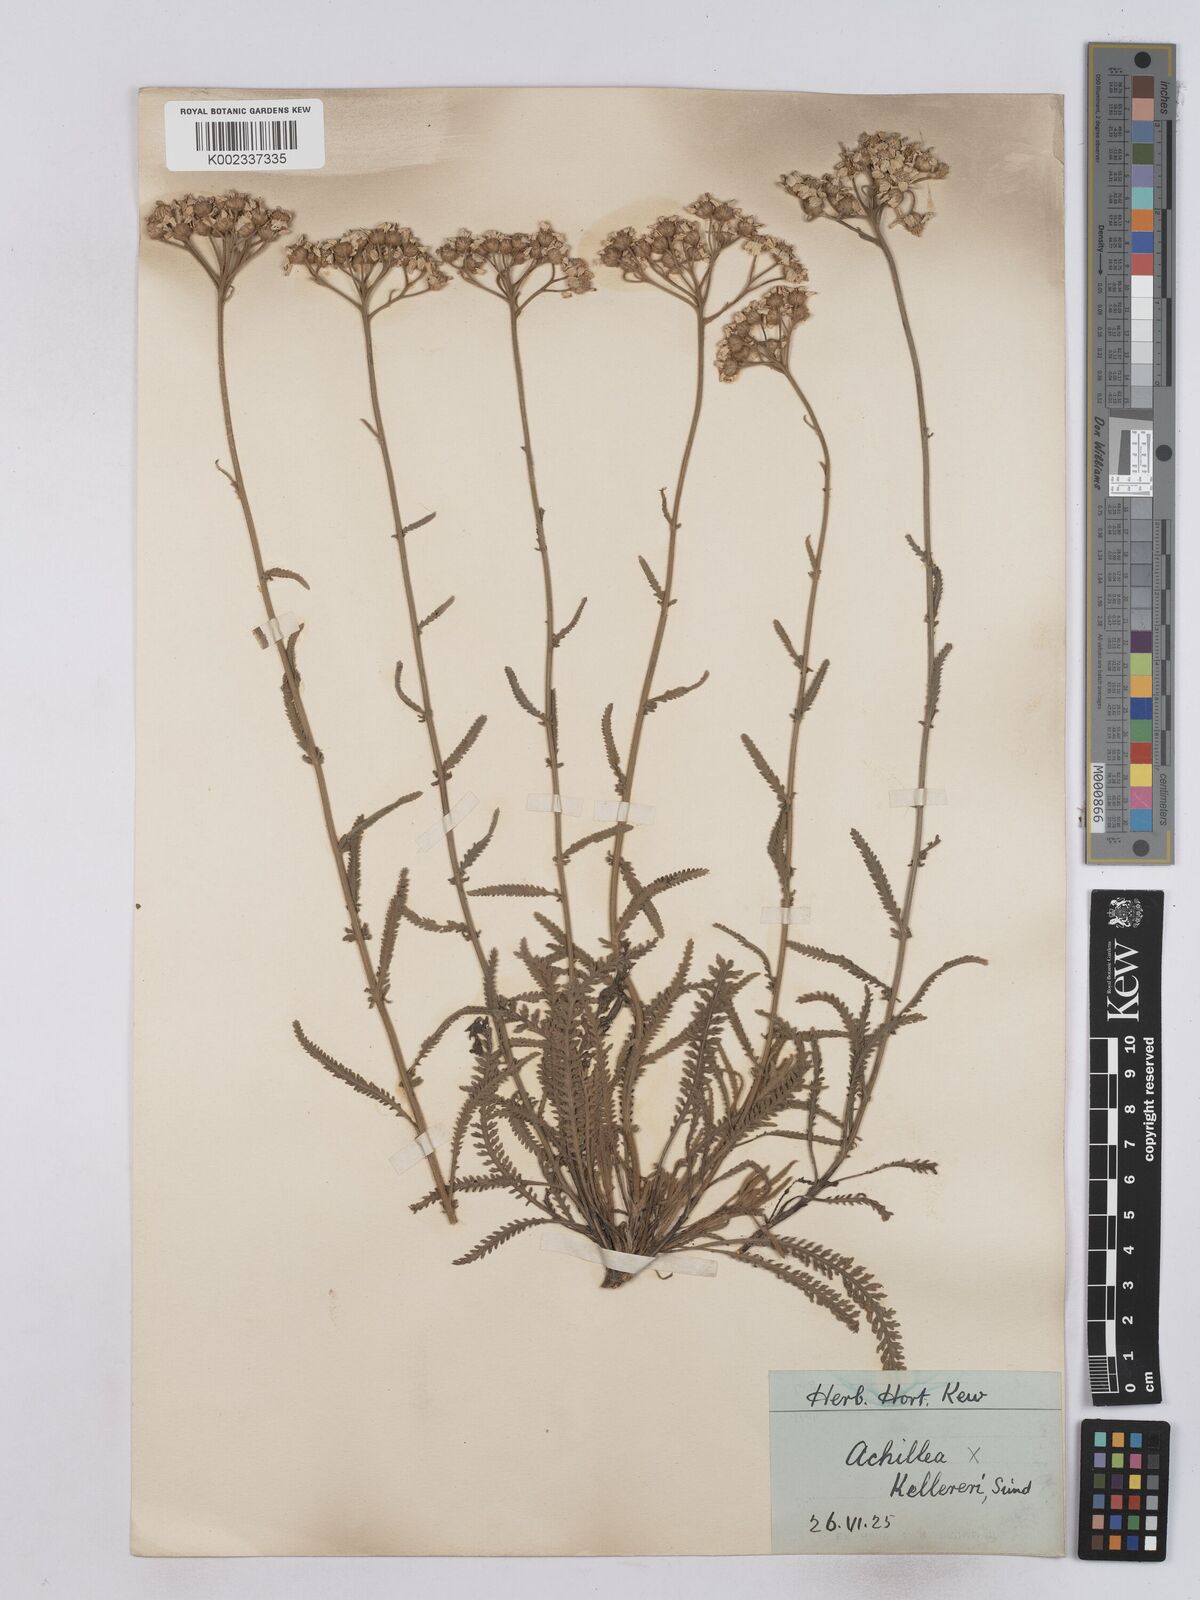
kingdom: Plantae
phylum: Tracheophyta
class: Magnoliopsida
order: Asterales
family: Asteraceae
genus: Achillea
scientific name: Achillea kellereri
